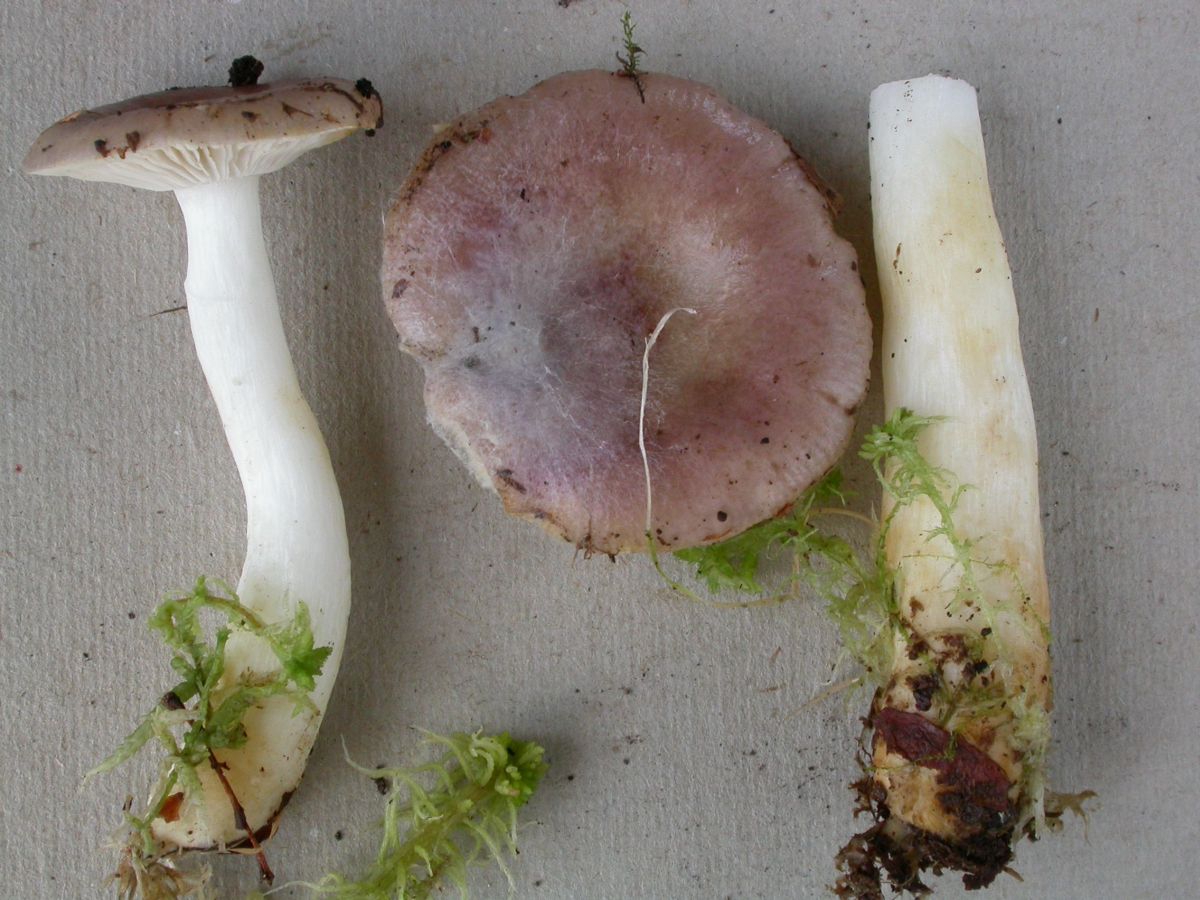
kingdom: Fungi
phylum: Basidiomycota
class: Agaricomycetes
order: Russulales
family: Russulaceae
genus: Russula
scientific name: Russula robertii
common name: tørvemos-skørhat
